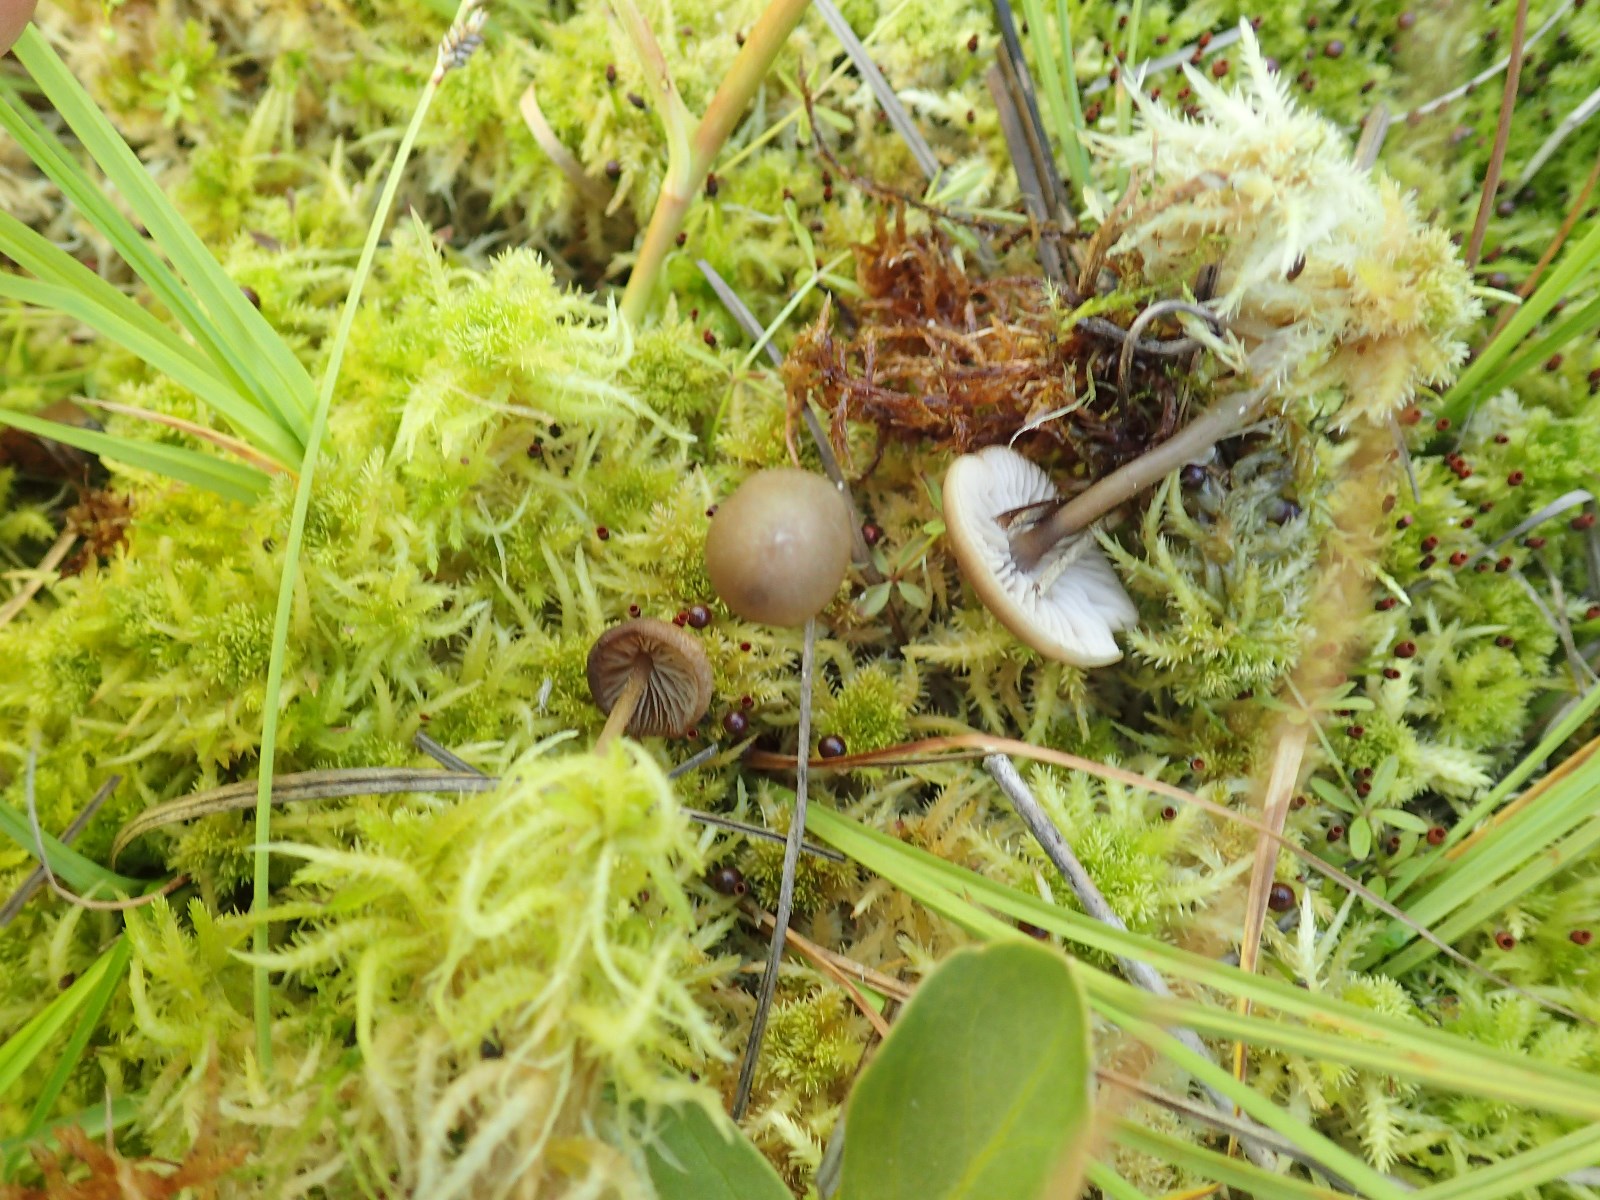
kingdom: Fungi
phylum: Basidiomycota
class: Agaricomycetes
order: Agaricales
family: Lyophyllaceae
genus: Sphagnurus
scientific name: Sphagnurus paluster
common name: tørvemos-gråblad
